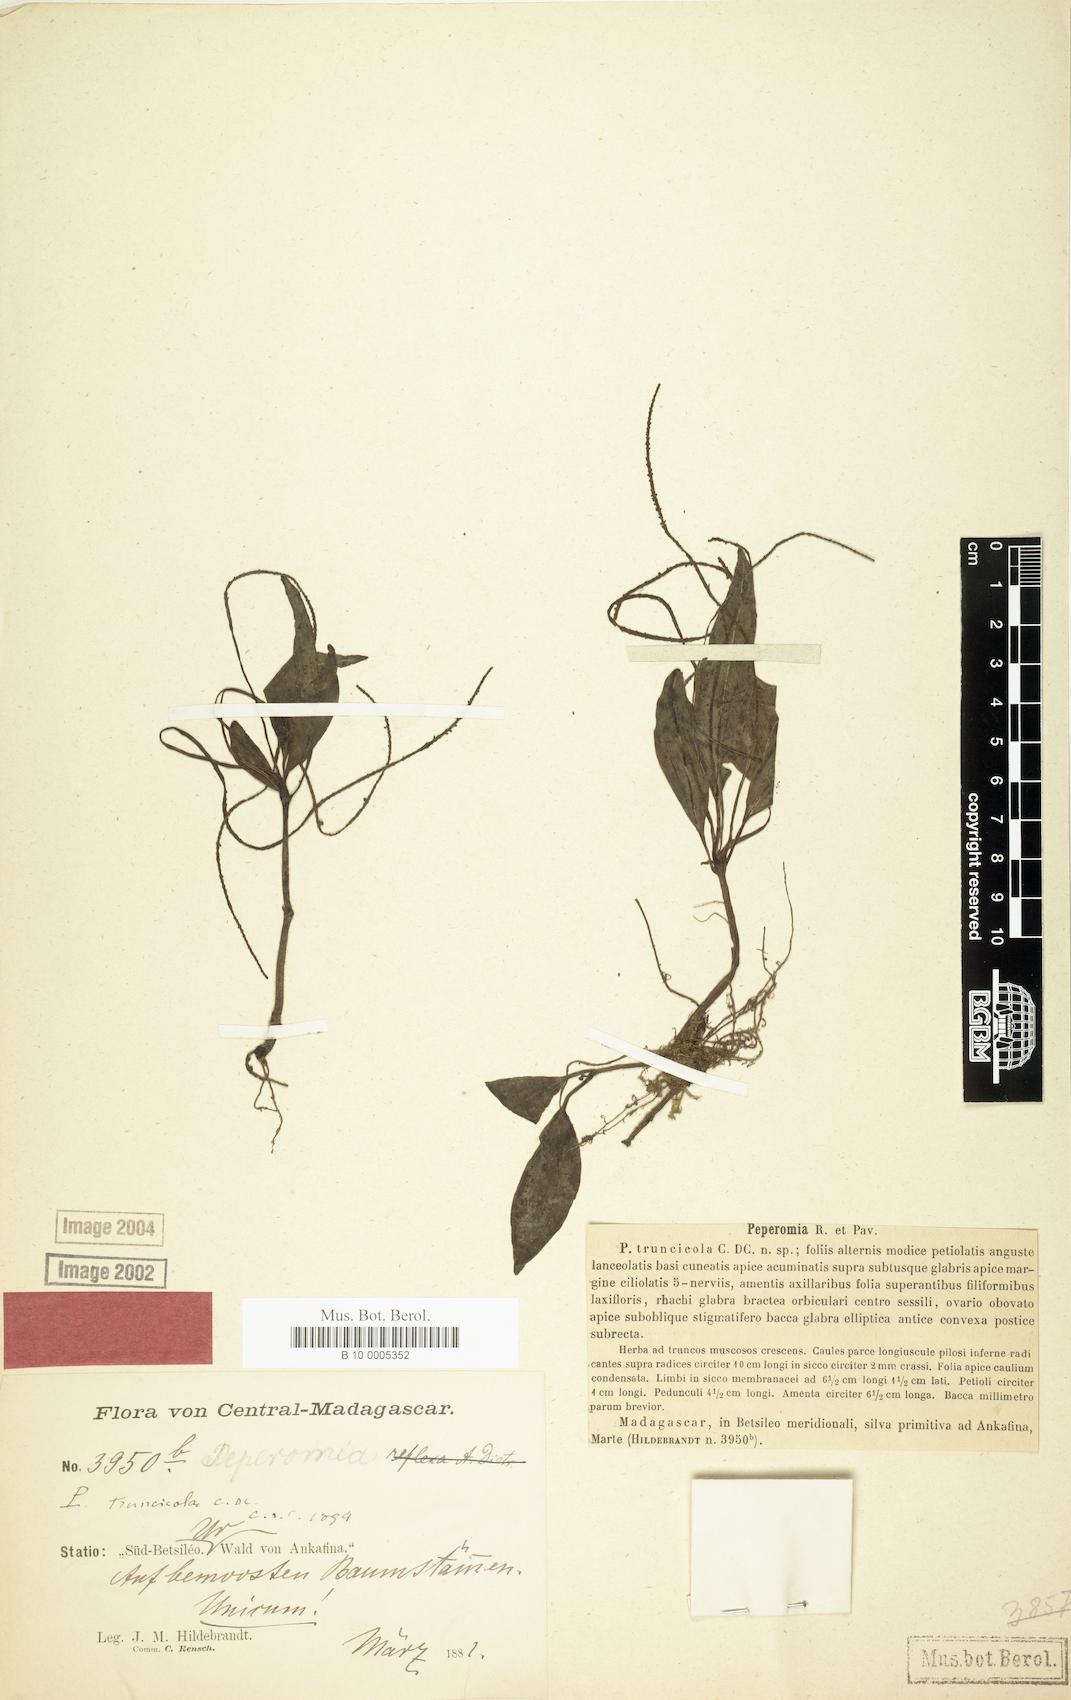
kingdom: Plantae
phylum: Tracheophyta
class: Magnoliopsida
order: Piperales
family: Piperaceae
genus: Peperomia
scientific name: Peperomia truncicola
